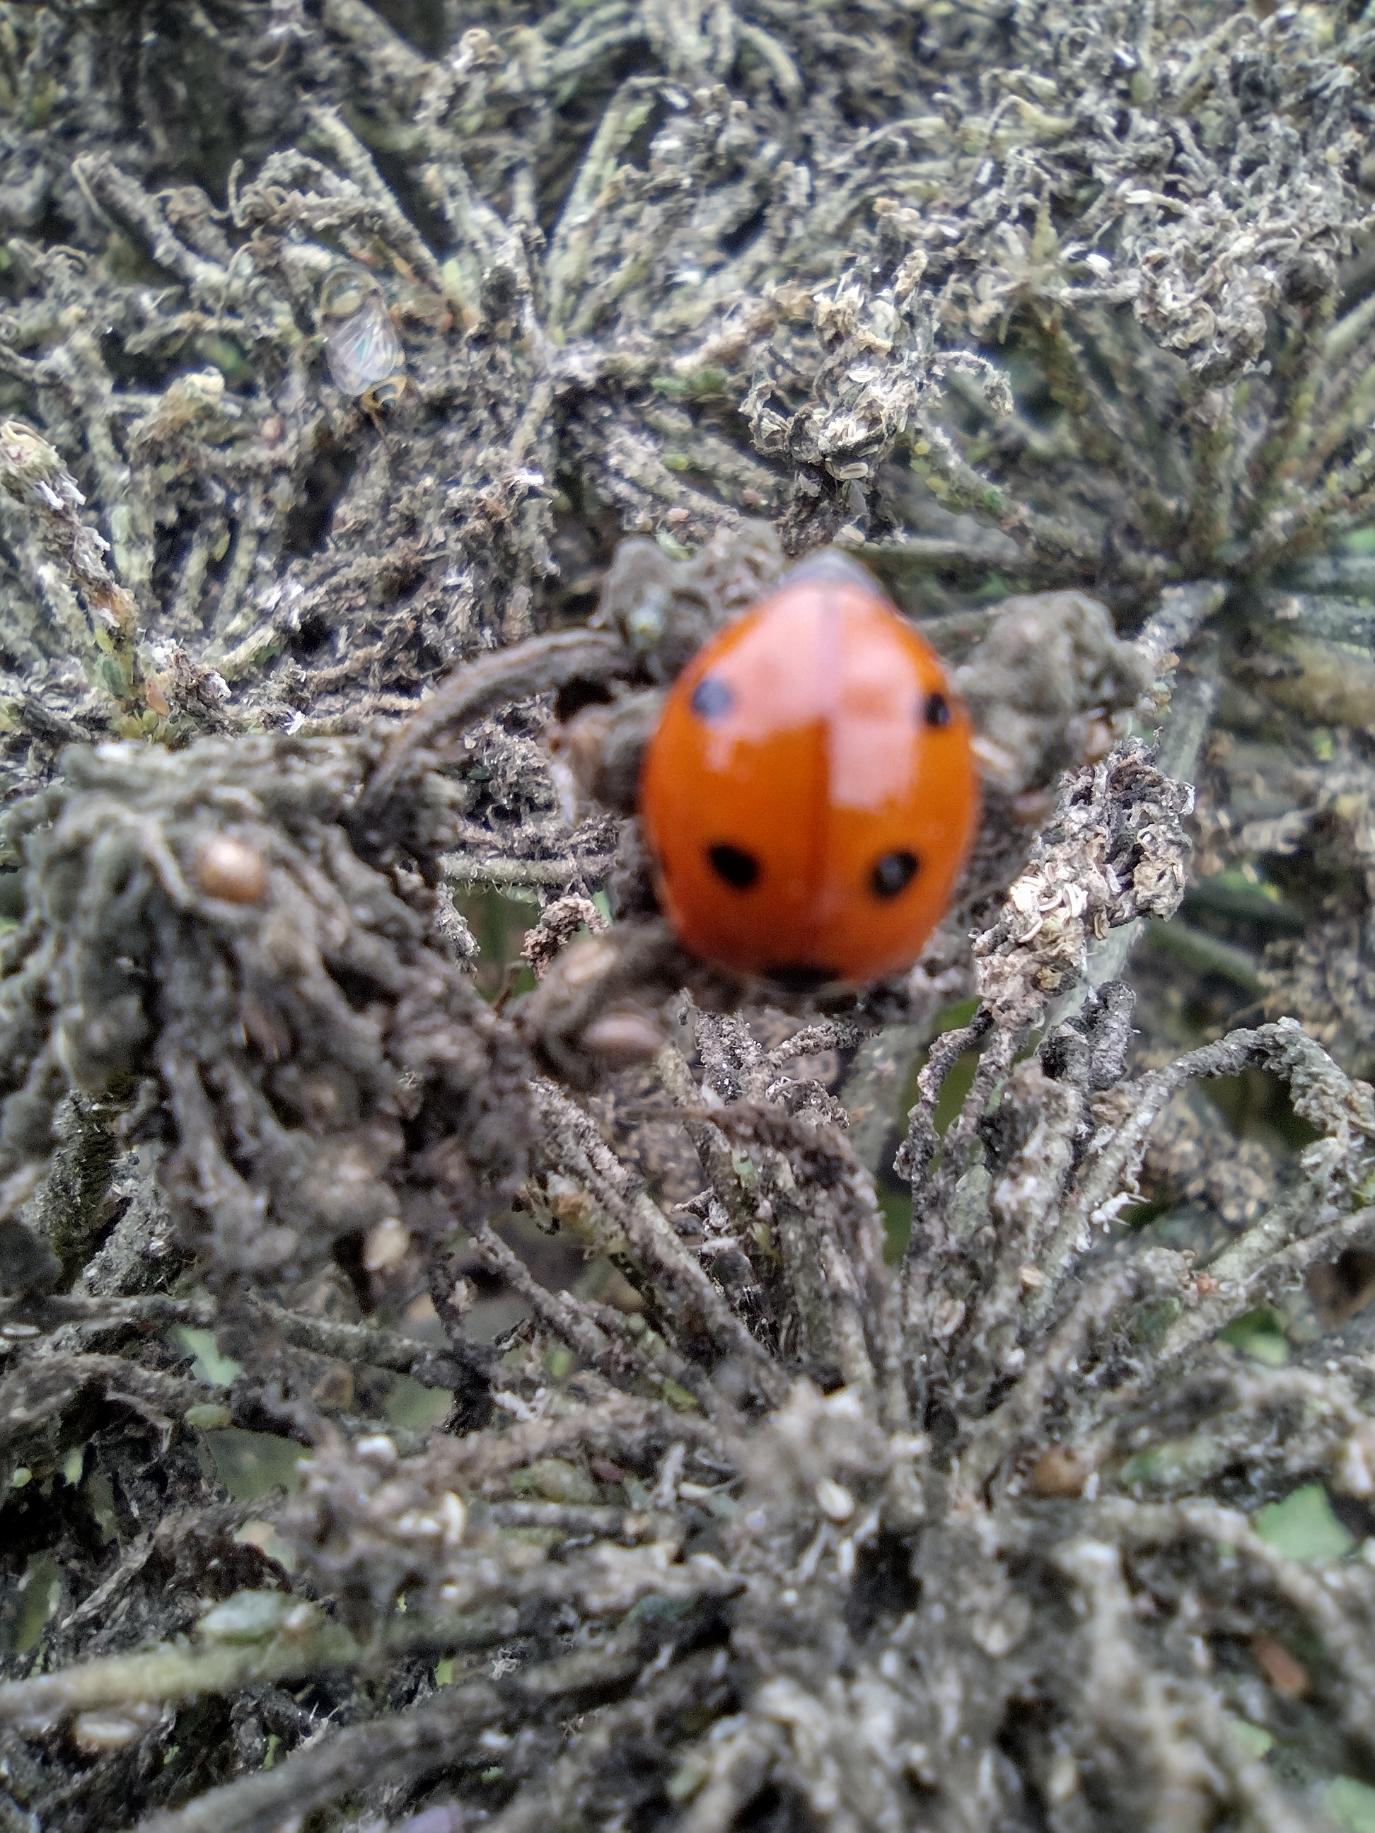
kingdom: Animalia
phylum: Arthropoda
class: Insecta
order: Coleoptera
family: Coccinellidae
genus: Coccinella
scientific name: Coccinella septempunctata
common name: Syvplettet mariehøne
